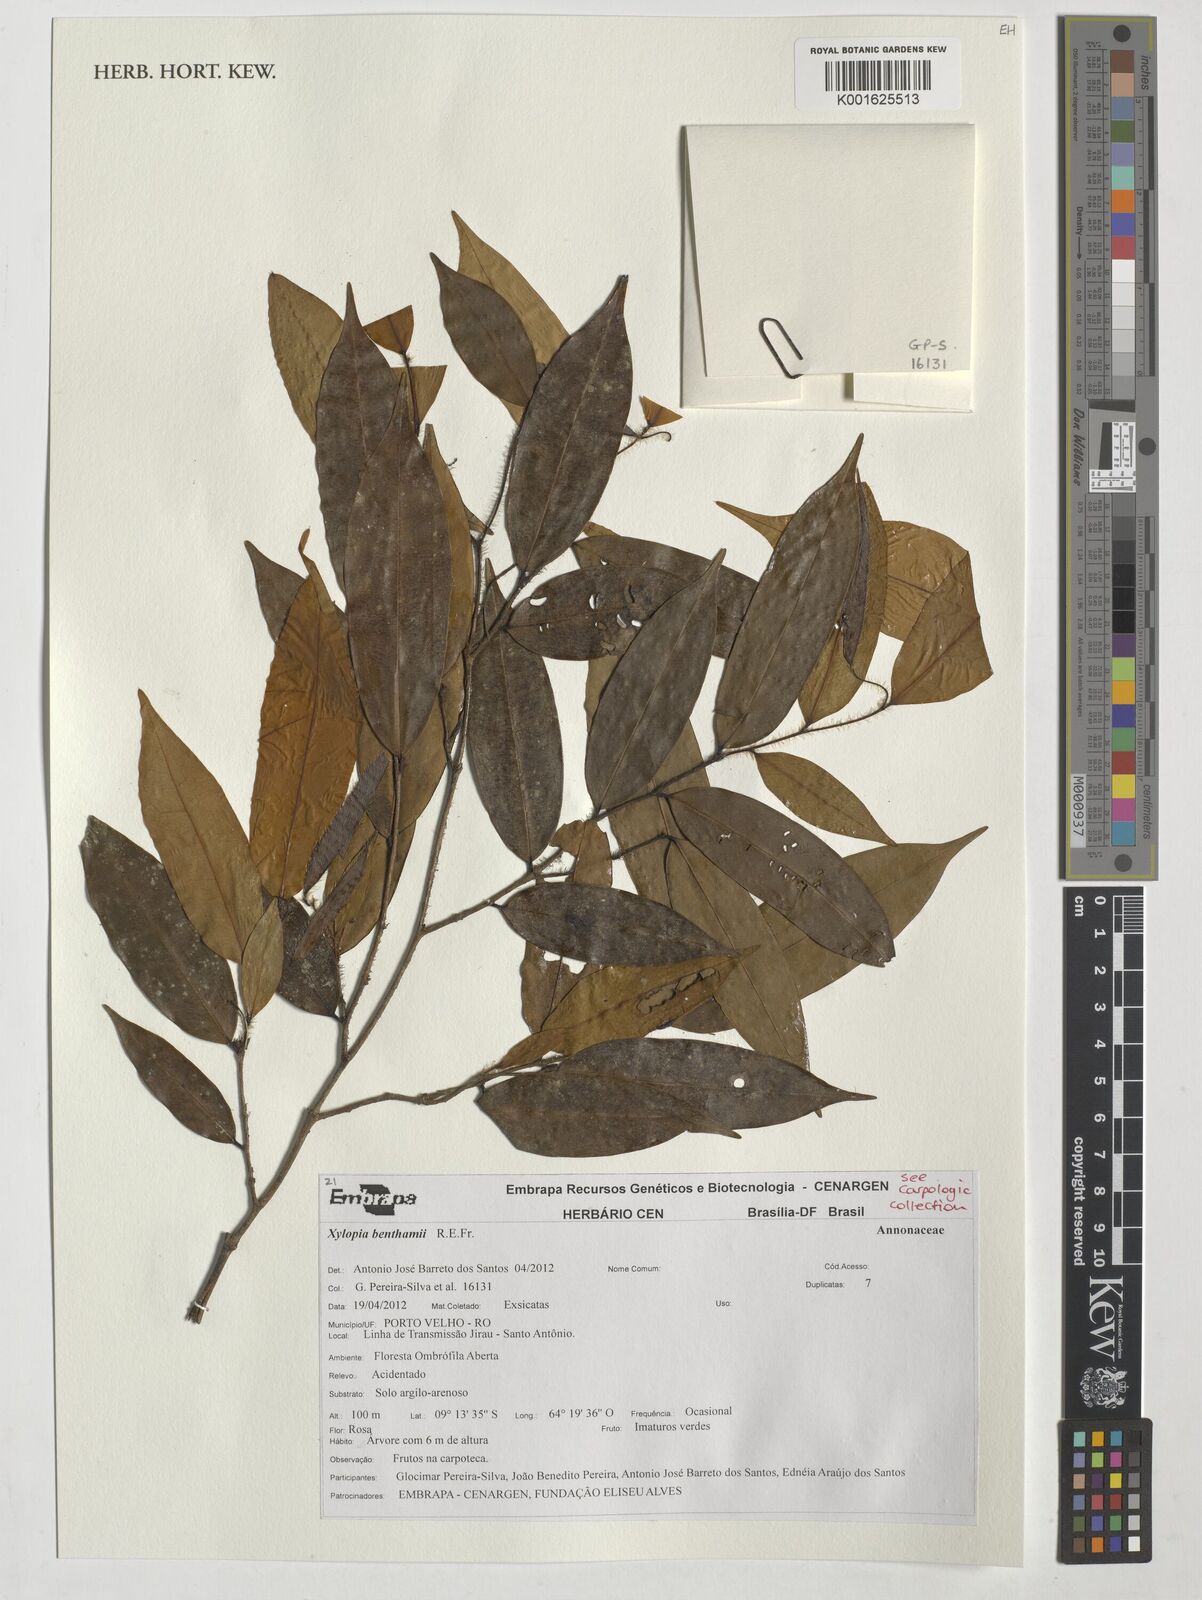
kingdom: Plantae
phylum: Tracheophyta
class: Magnoliopsida
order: Magnoliales
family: Annonaceae
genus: Xylopia
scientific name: Xylopia benthamii
